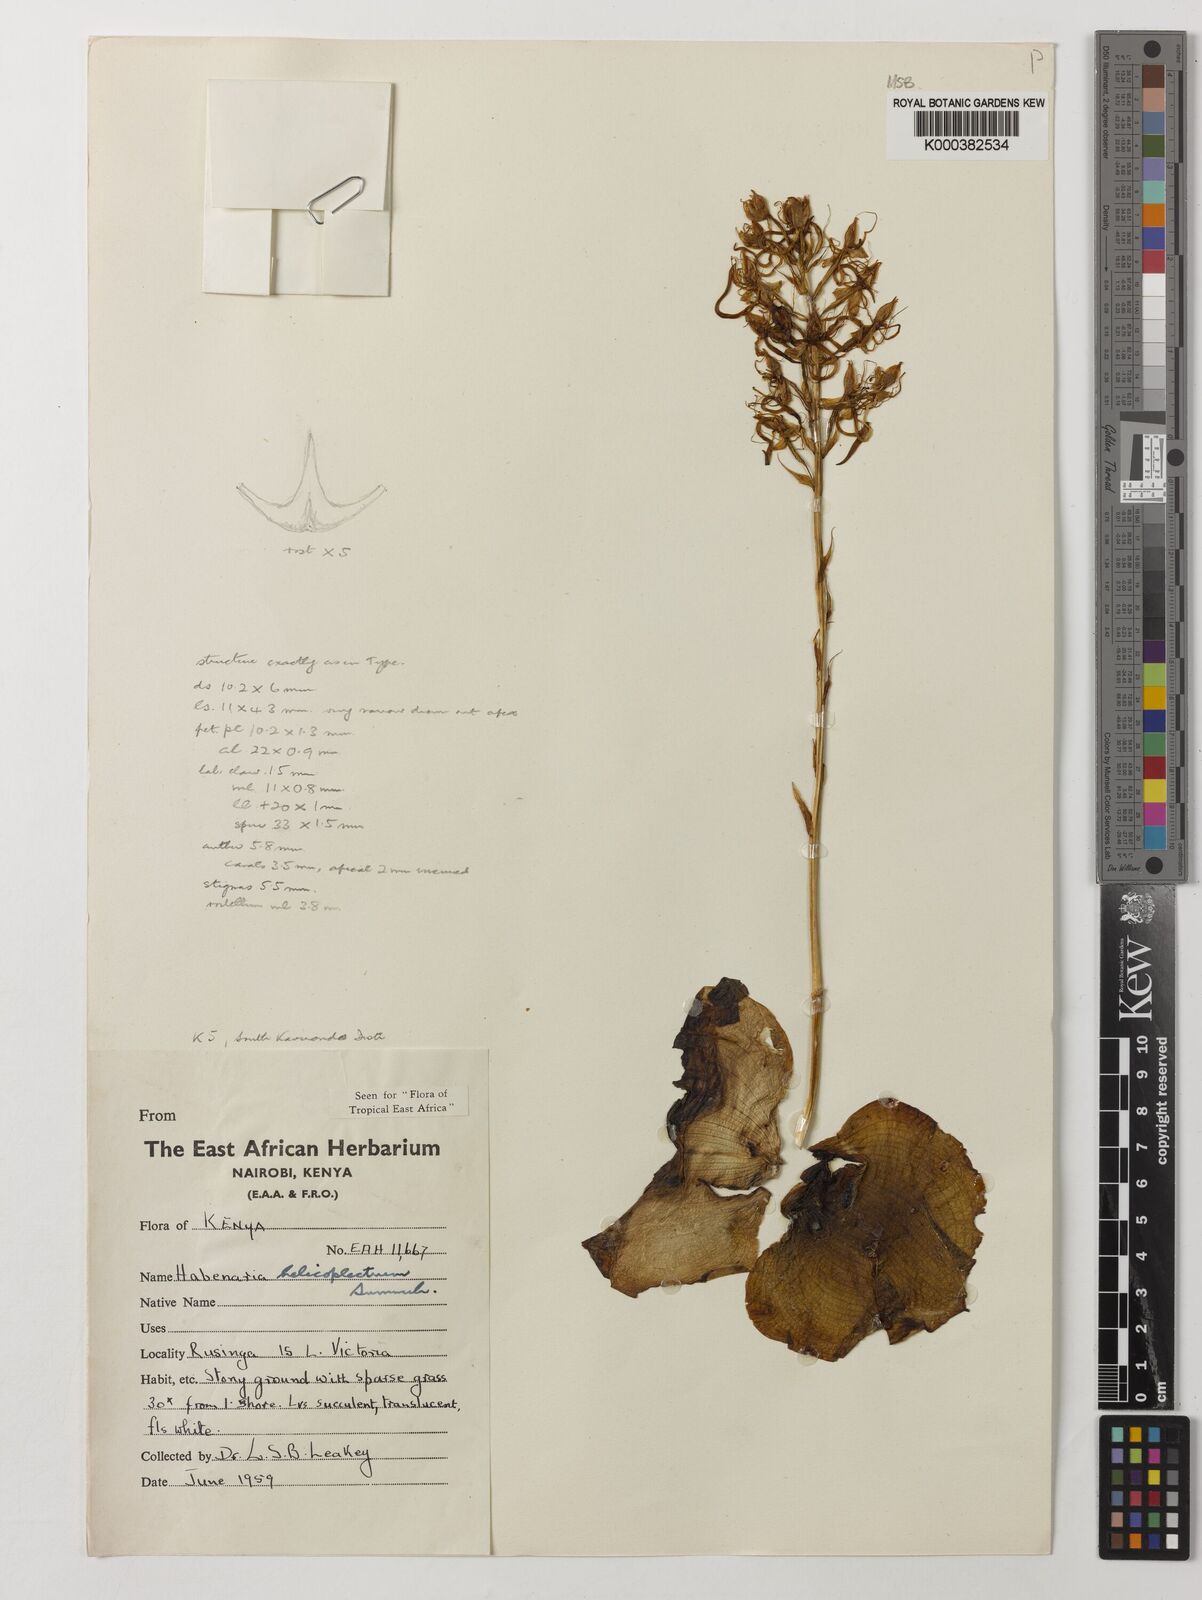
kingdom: Plantae
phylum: Tracheophyta
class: Liliopsida
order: Asparagales
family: Orchidaceae
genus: Habenaria
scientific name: Habenaria helicoplectrum
